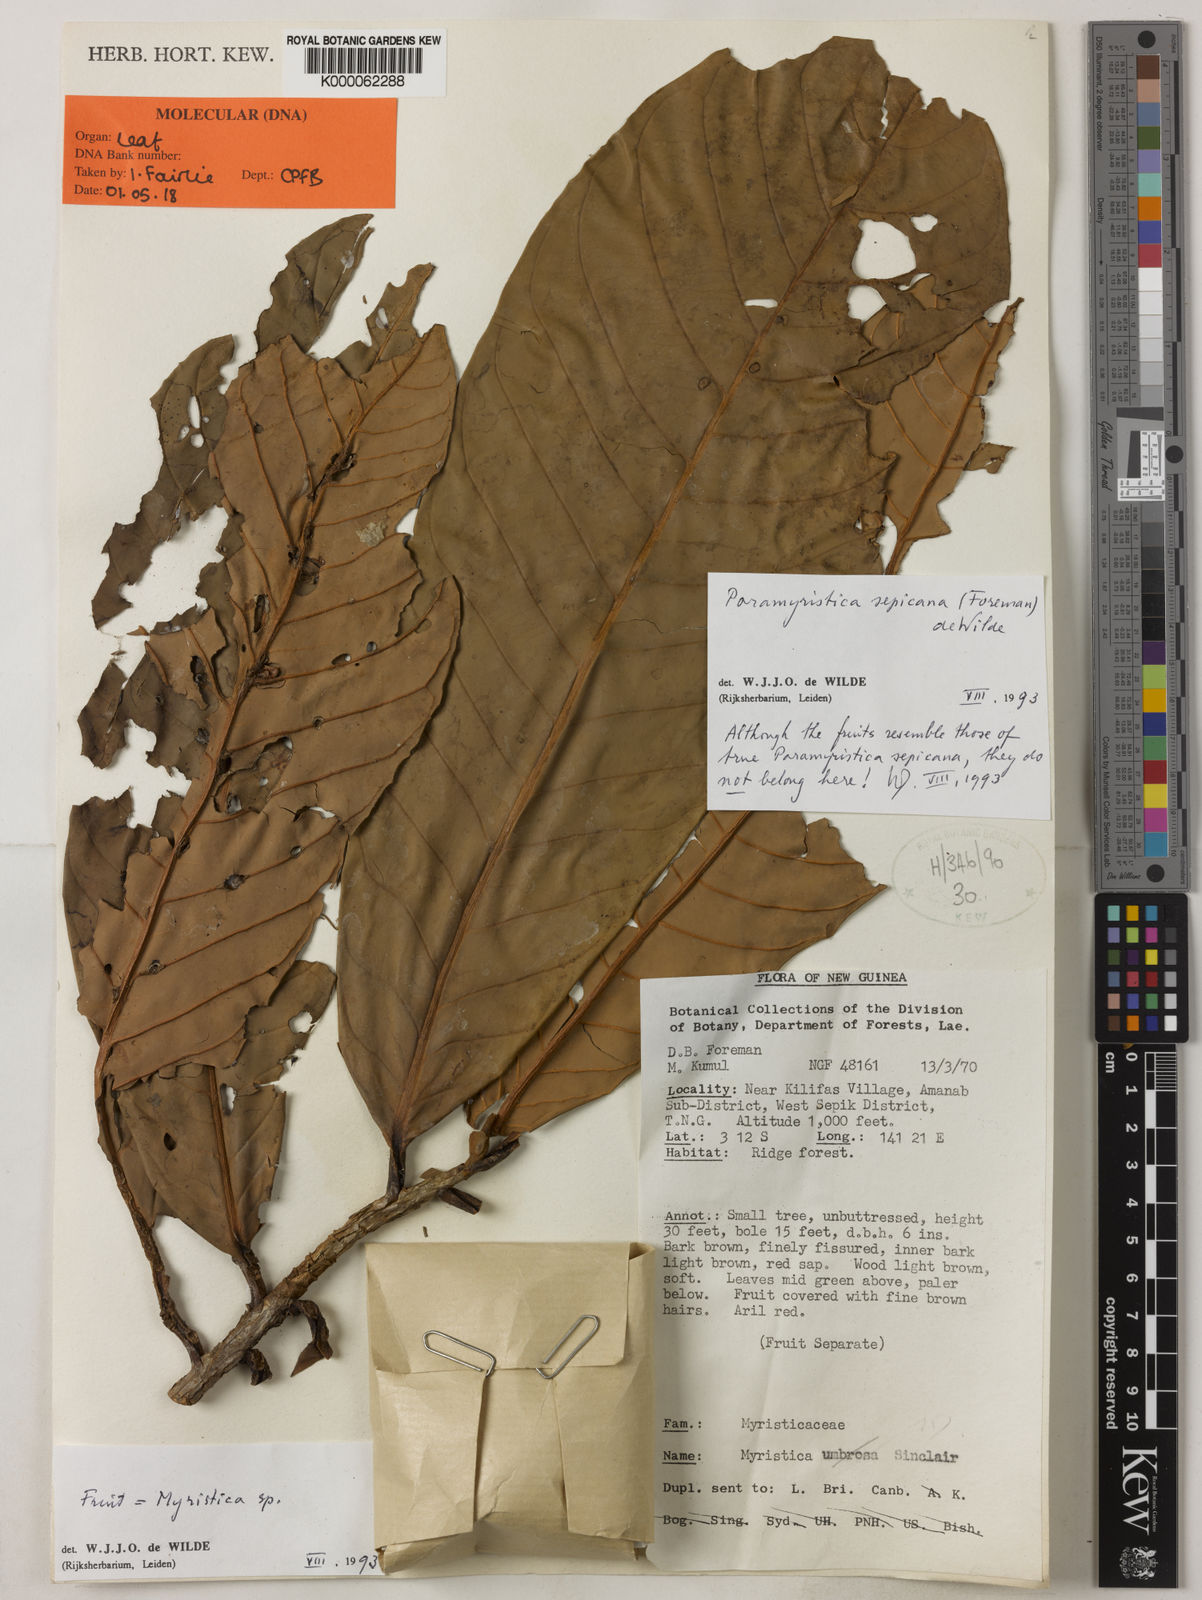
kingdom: Plantae
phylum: Tracheophyta
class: Magnoliopsida
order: Magnoliales
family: Myristicaceae
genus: Paramyristica
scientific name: Paramyristica
